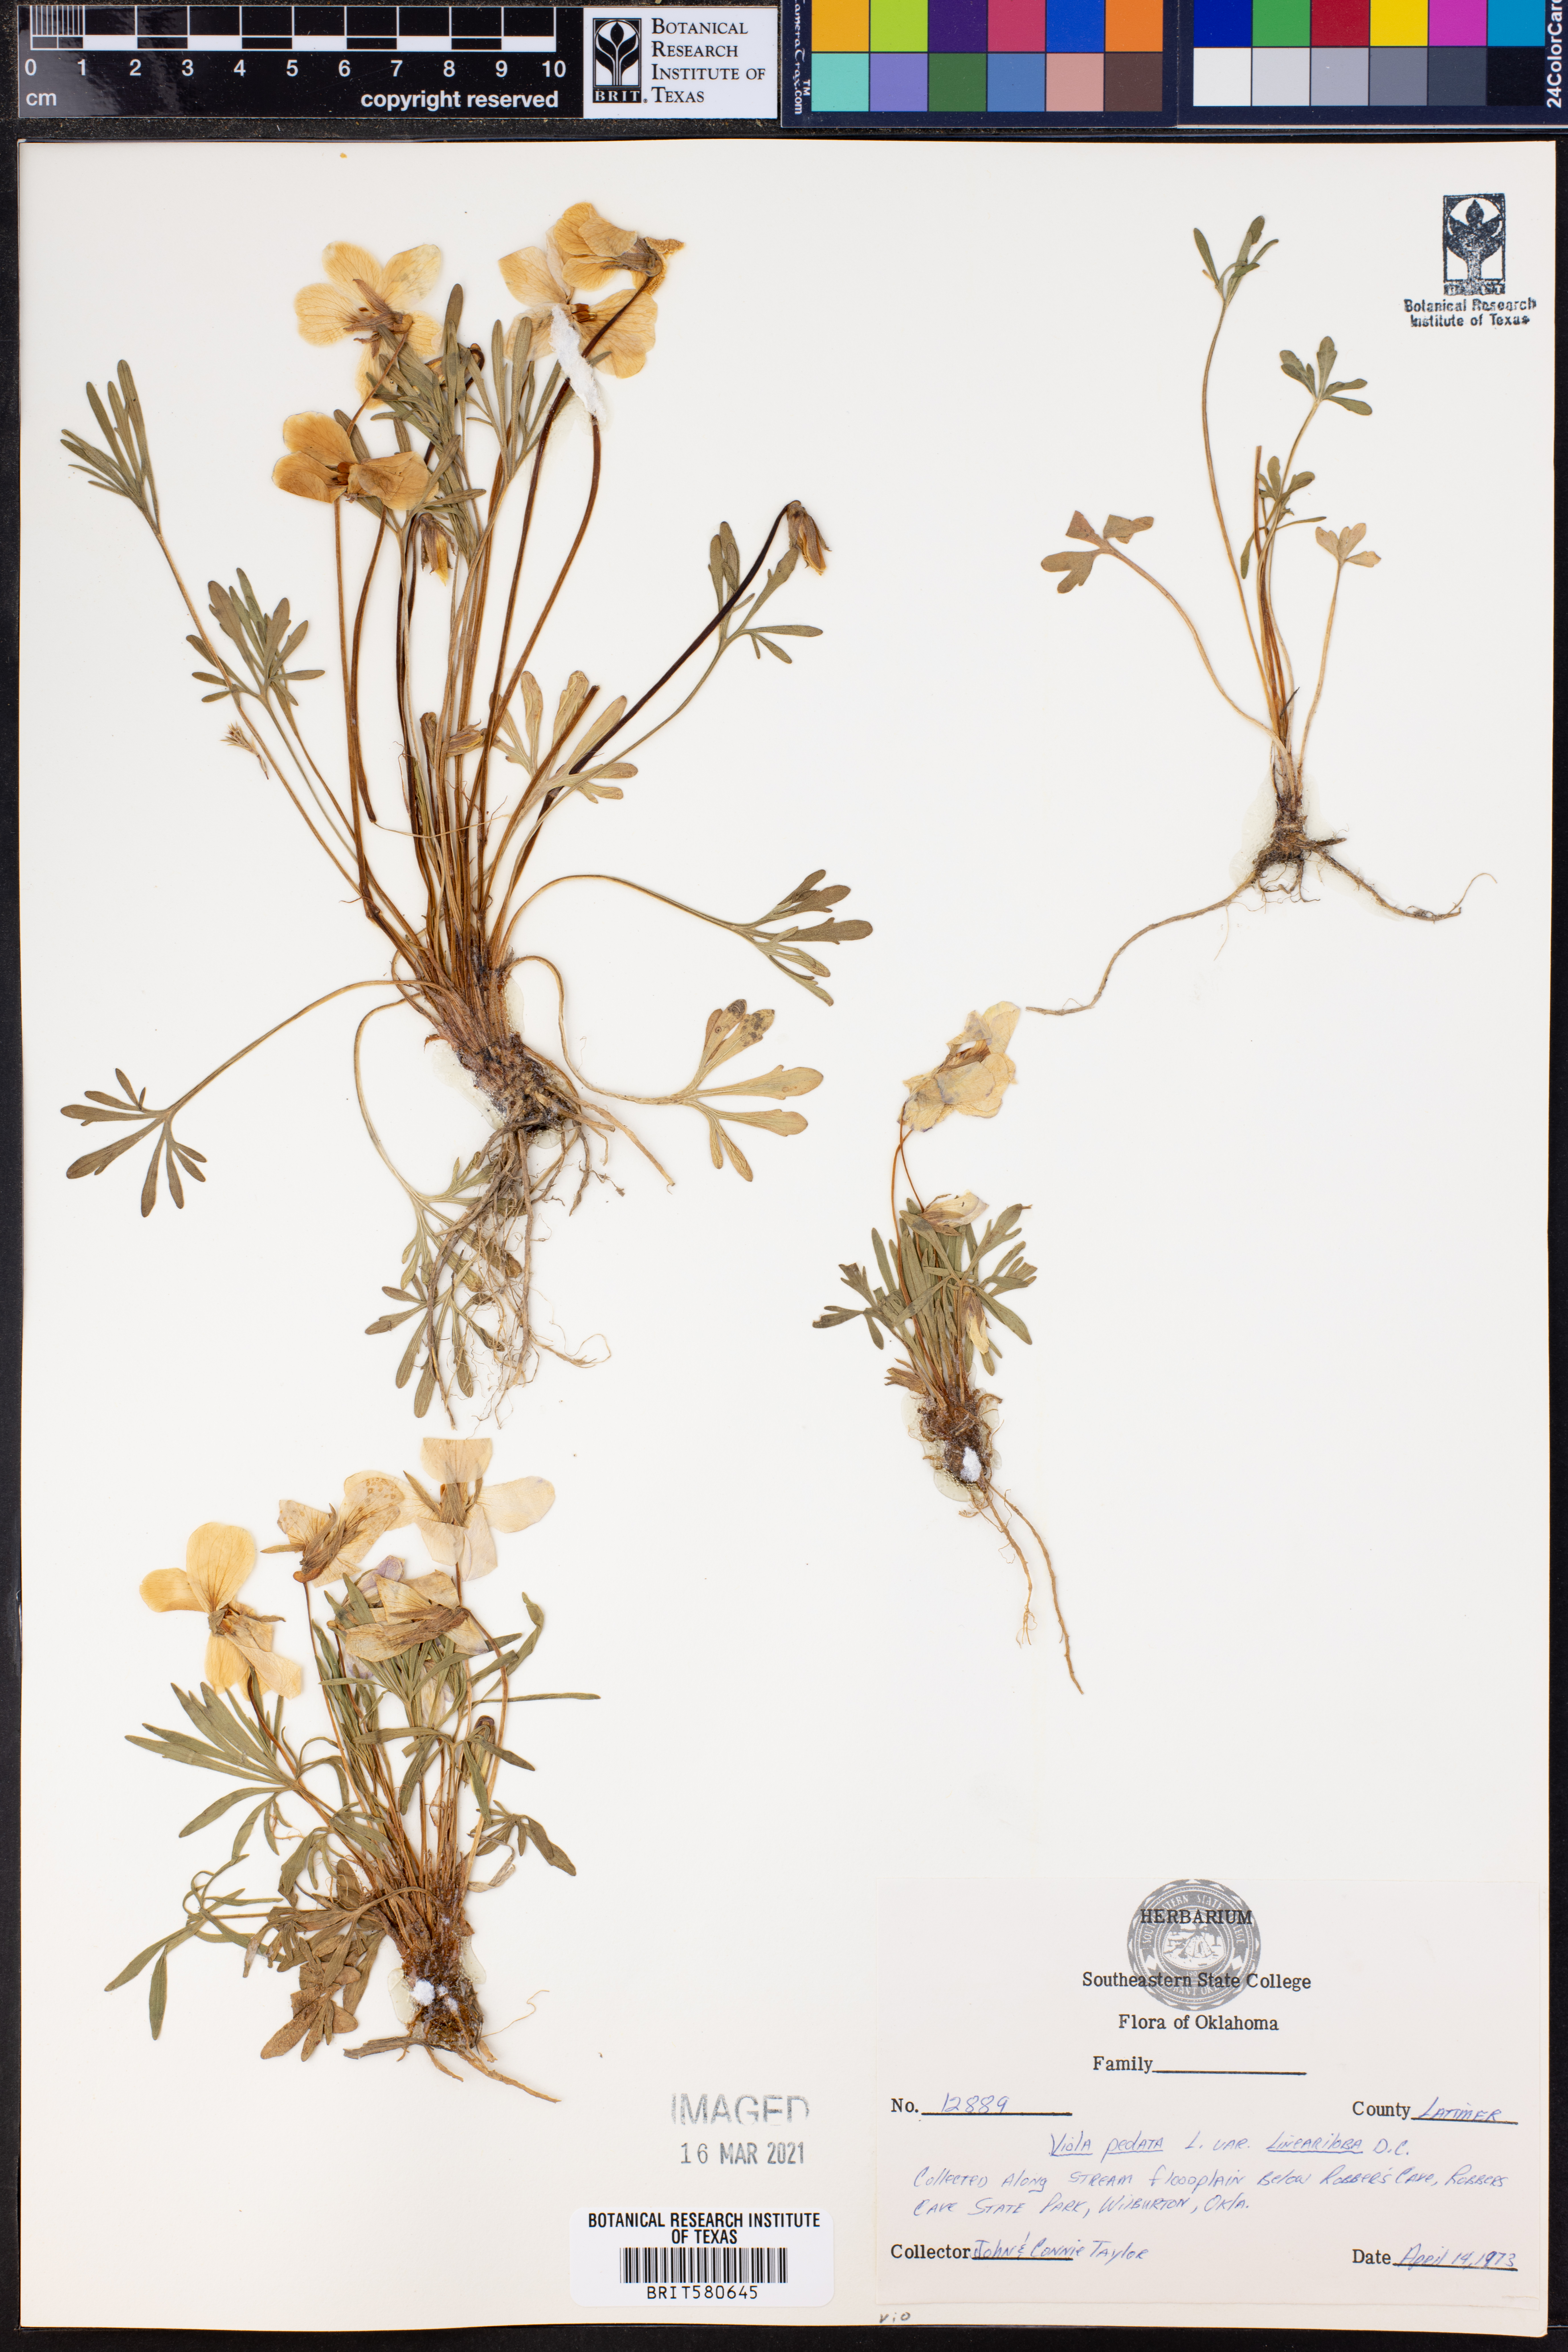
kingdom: Plantae
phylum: Tracheophyta
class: Magnoliopsida
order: Malpighiales
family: Violaceae
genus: Viola
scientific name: Viola pedata
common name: Pansy violet
